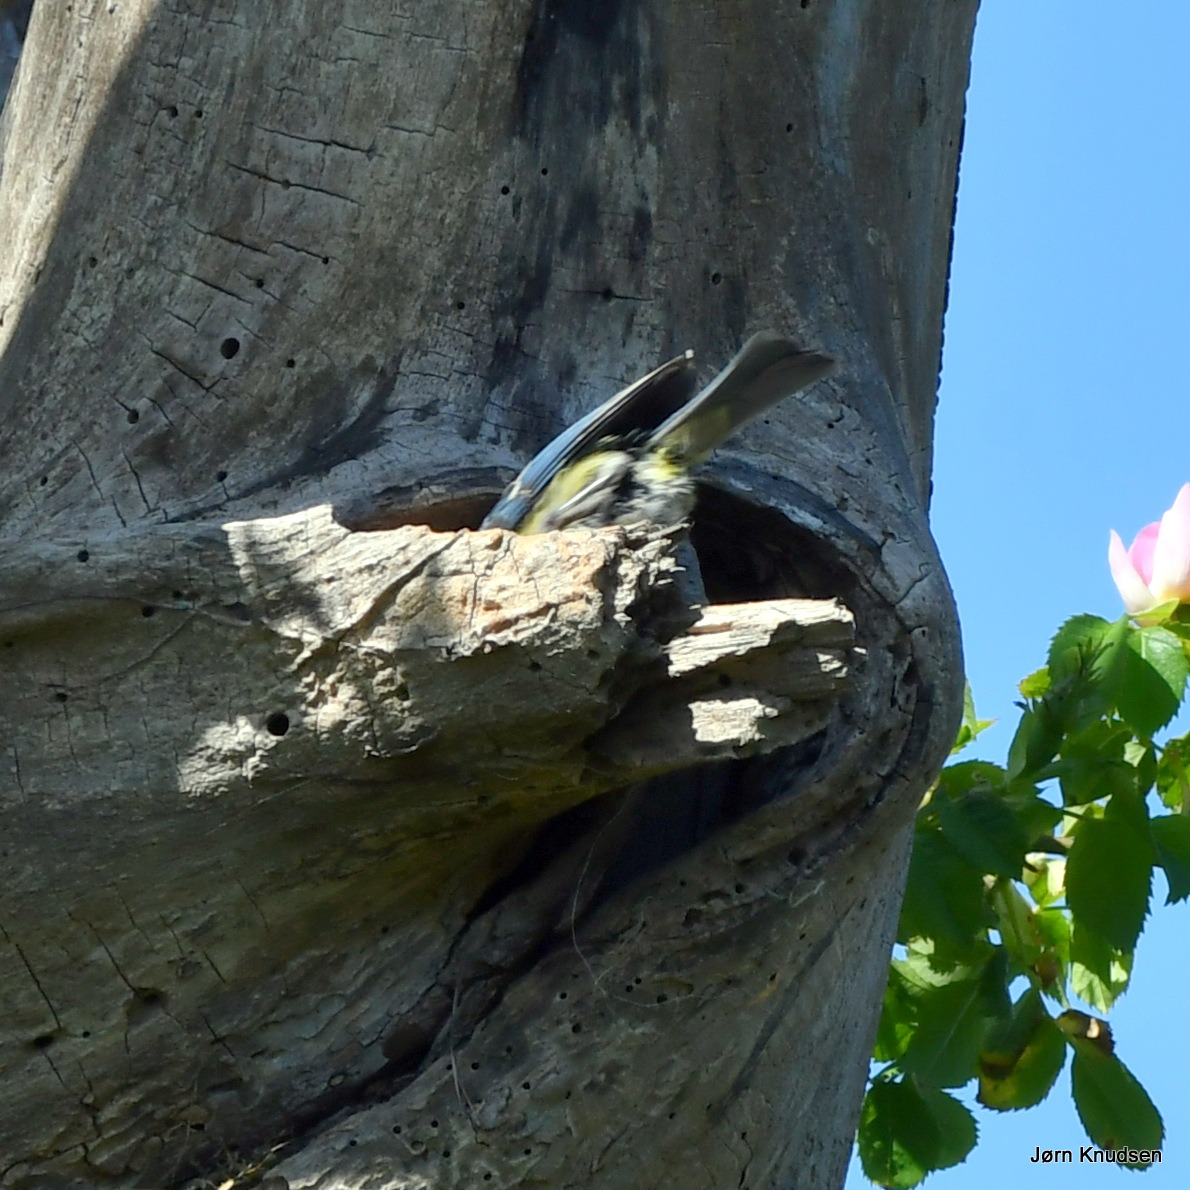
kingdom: Animalia
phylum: Chordata
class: Aves
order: Passeriformes
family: Paridae
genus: Cyanistes
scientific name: Cyanistes caeruleus
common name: Blåmejse
